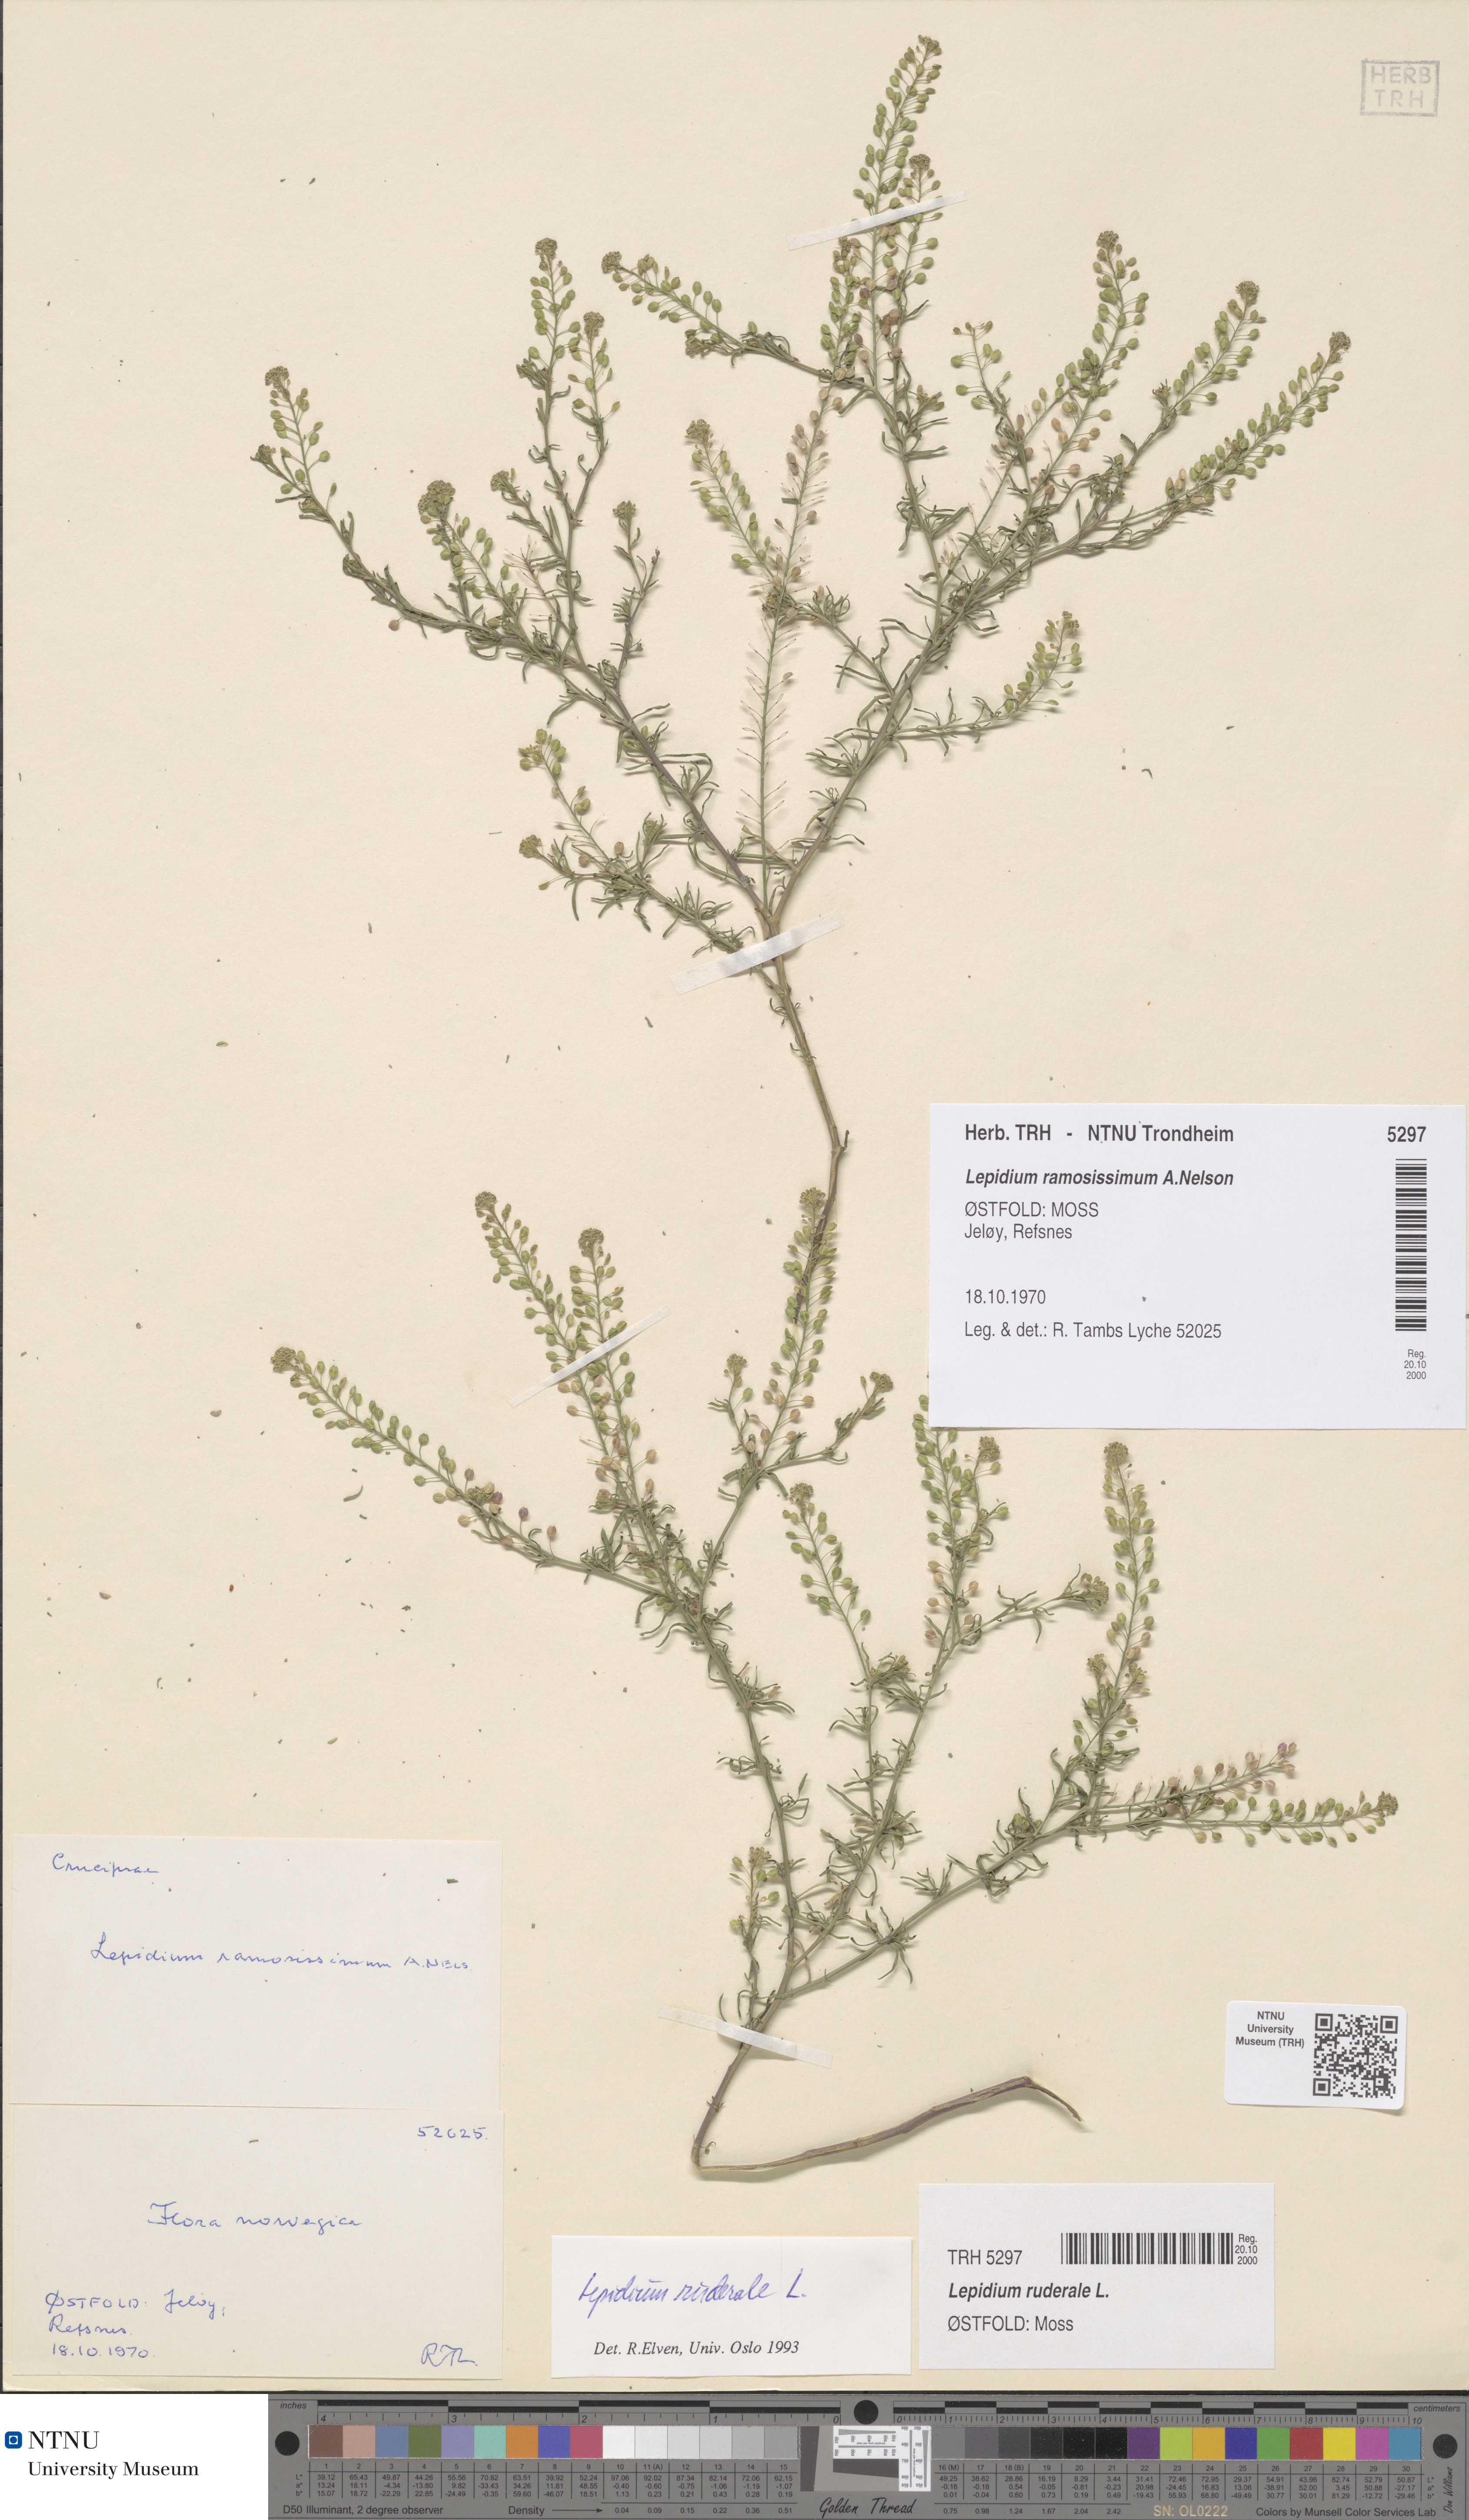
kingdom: Plantae
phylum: Tracheophyta
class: Magnoliopsida
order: Brassicales
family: Brassicaceae
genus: Lepidium
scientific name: Lepidium ruderale
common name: Narrow-leaved pepperwort
